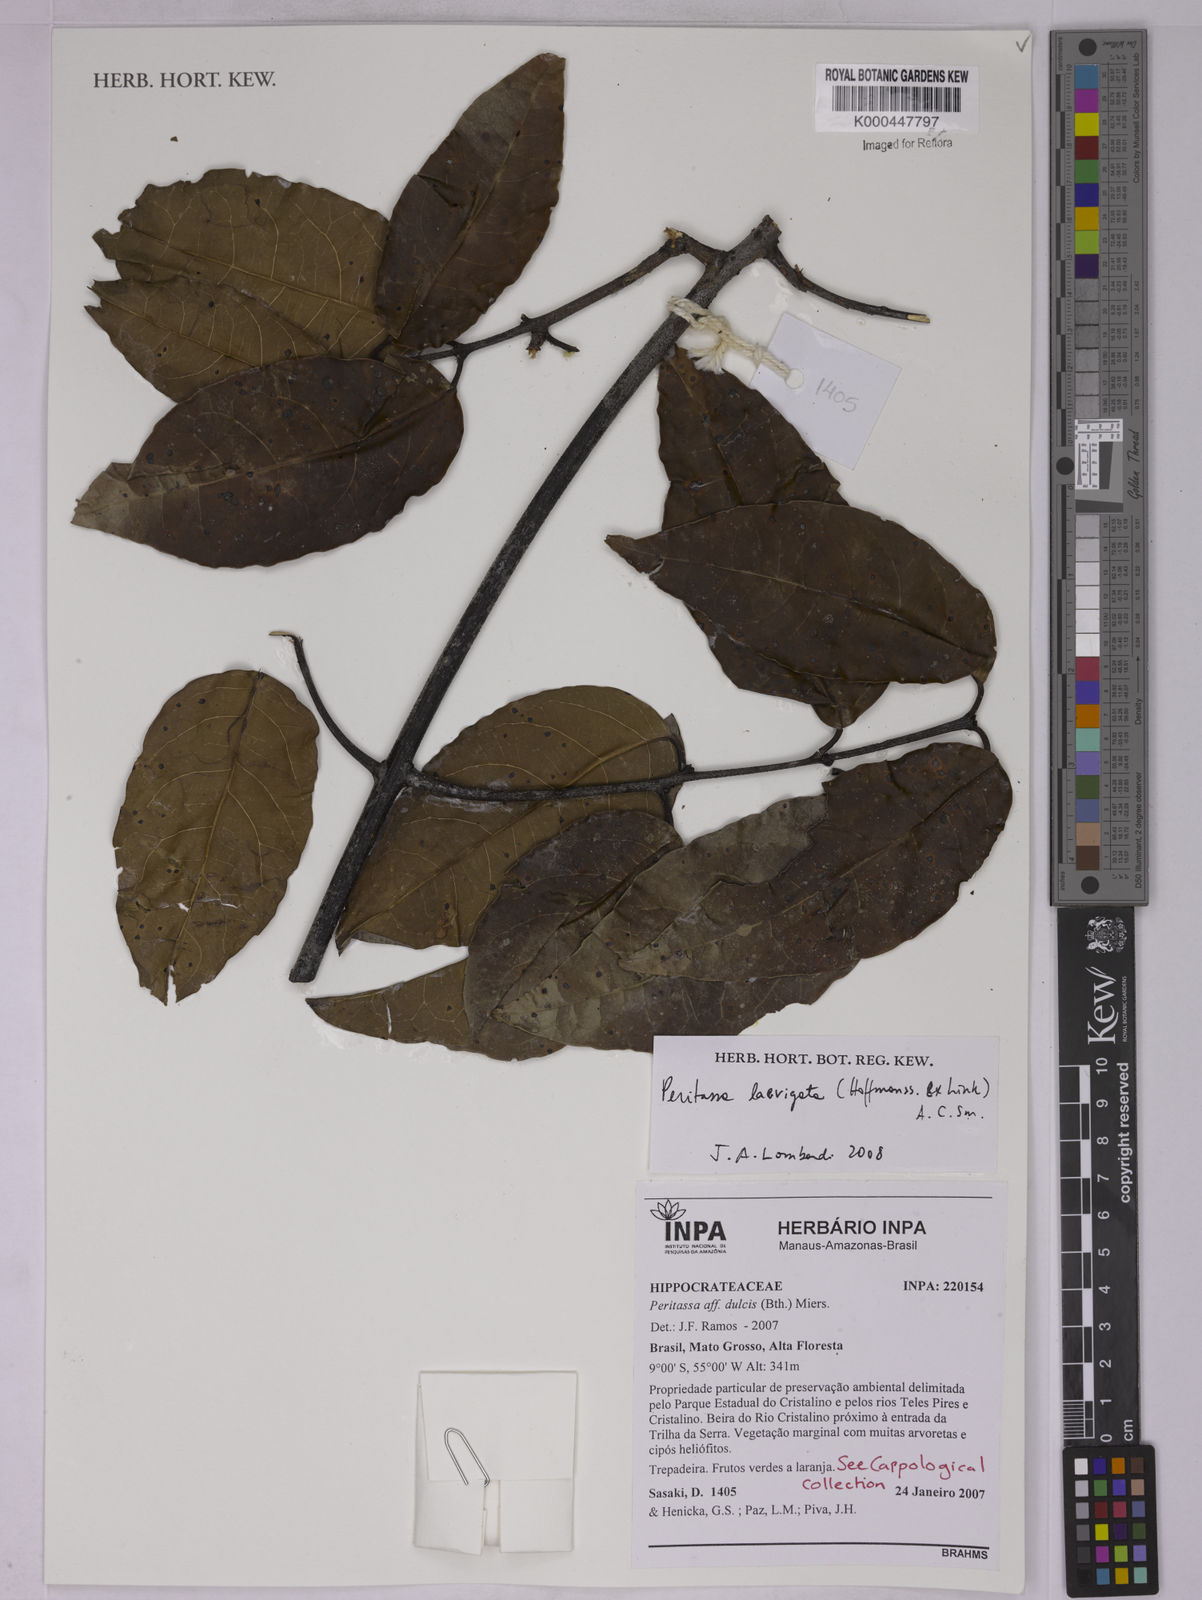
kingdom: Plantae
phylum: Tracheophyta
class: Magnoliopsida
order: Celastrales
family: Celastraceae
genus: Peritassa
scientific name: Peritassa laevigata
